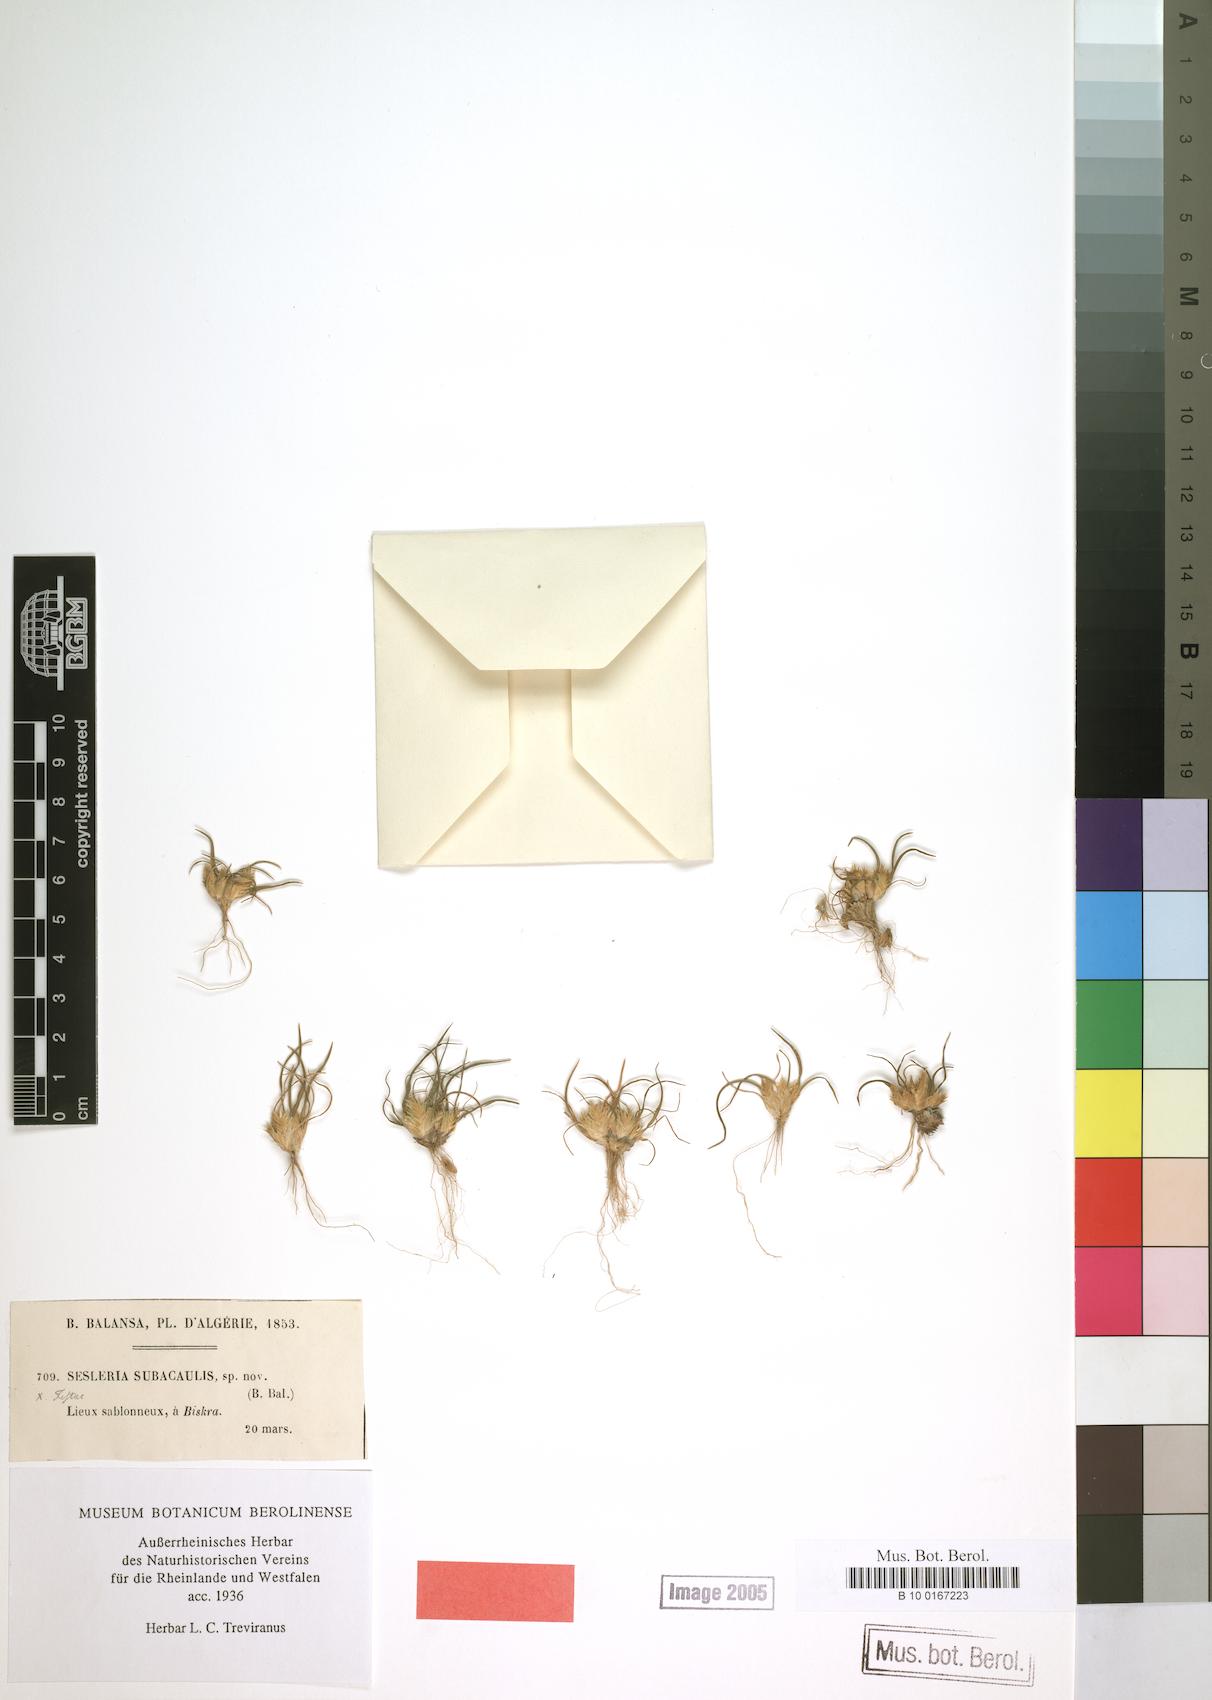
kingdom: Plantae
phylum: Tracheophyta
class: Liliopsida
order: Poales
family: Poaceae
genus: Ammochloa
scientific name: Ammochloa palaestina
